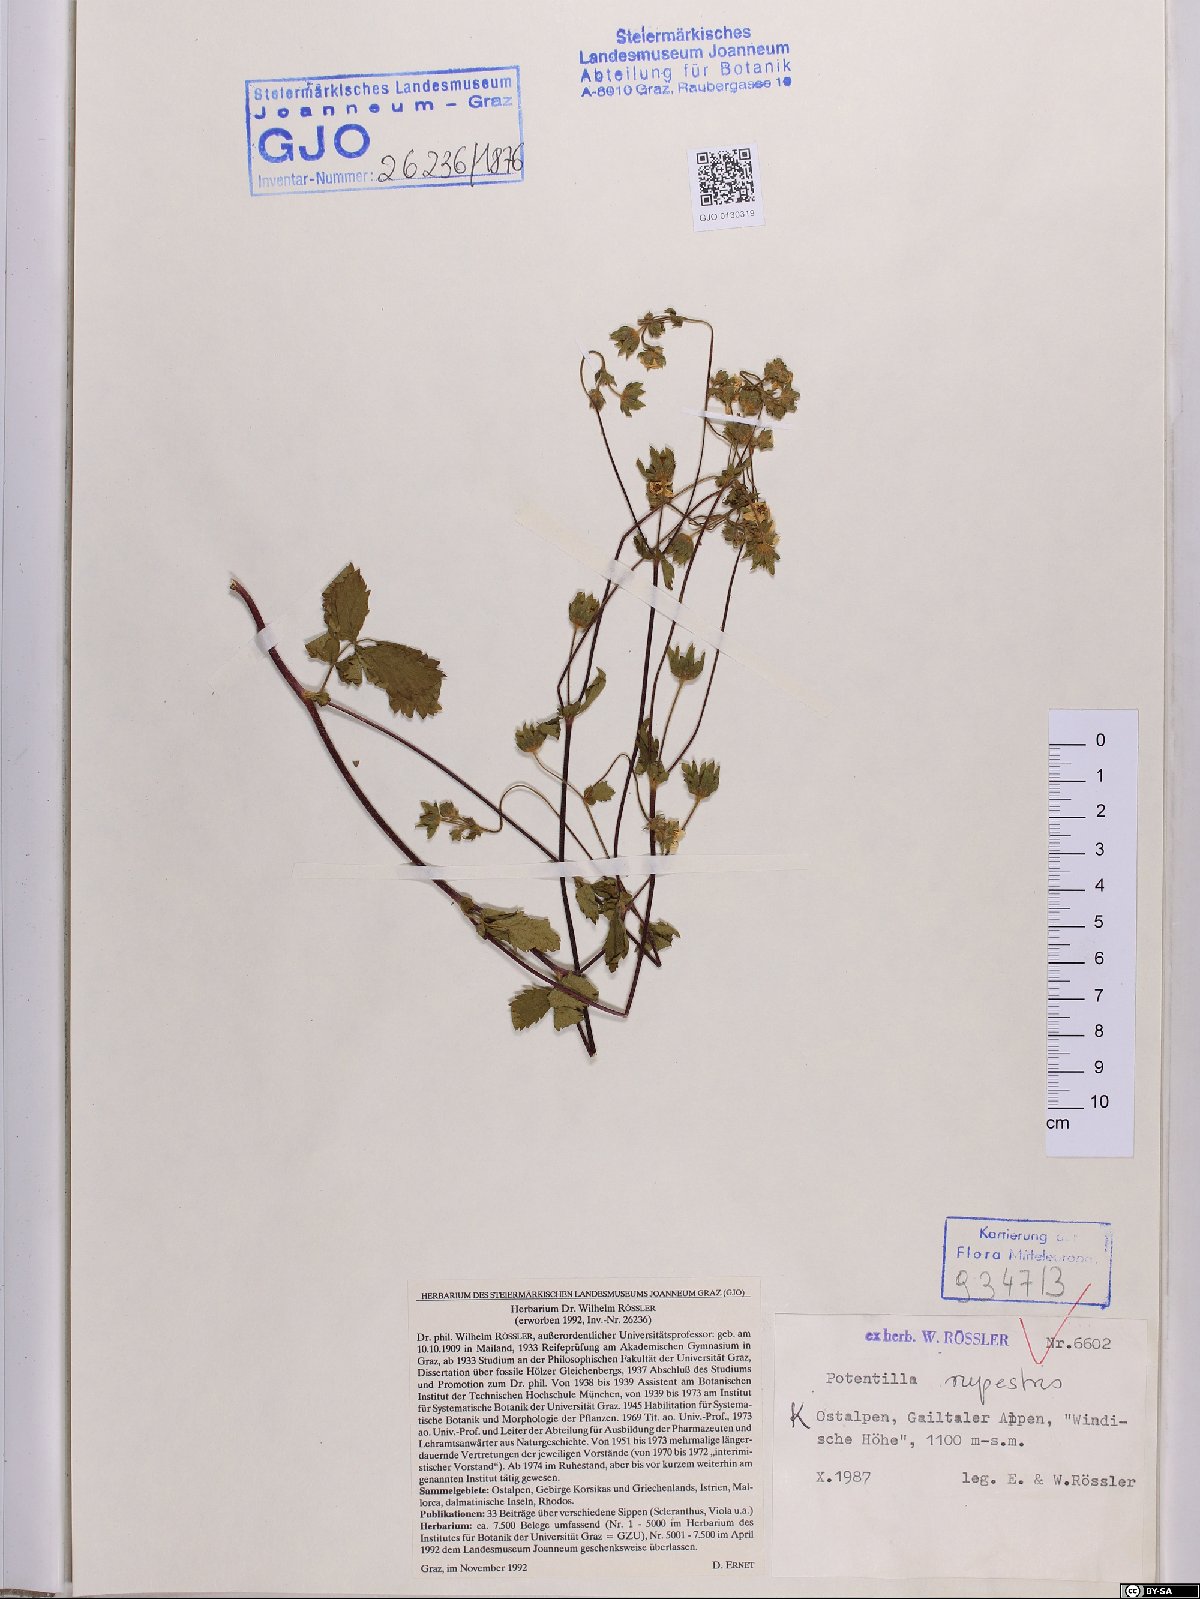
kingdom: Plantae
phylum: Tracheophyta
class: Magnoliopsida
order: Rosales
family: Rosaceae
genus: Drymocallis
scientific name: Drymocallis rupestris
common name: Rock cinquefoil
